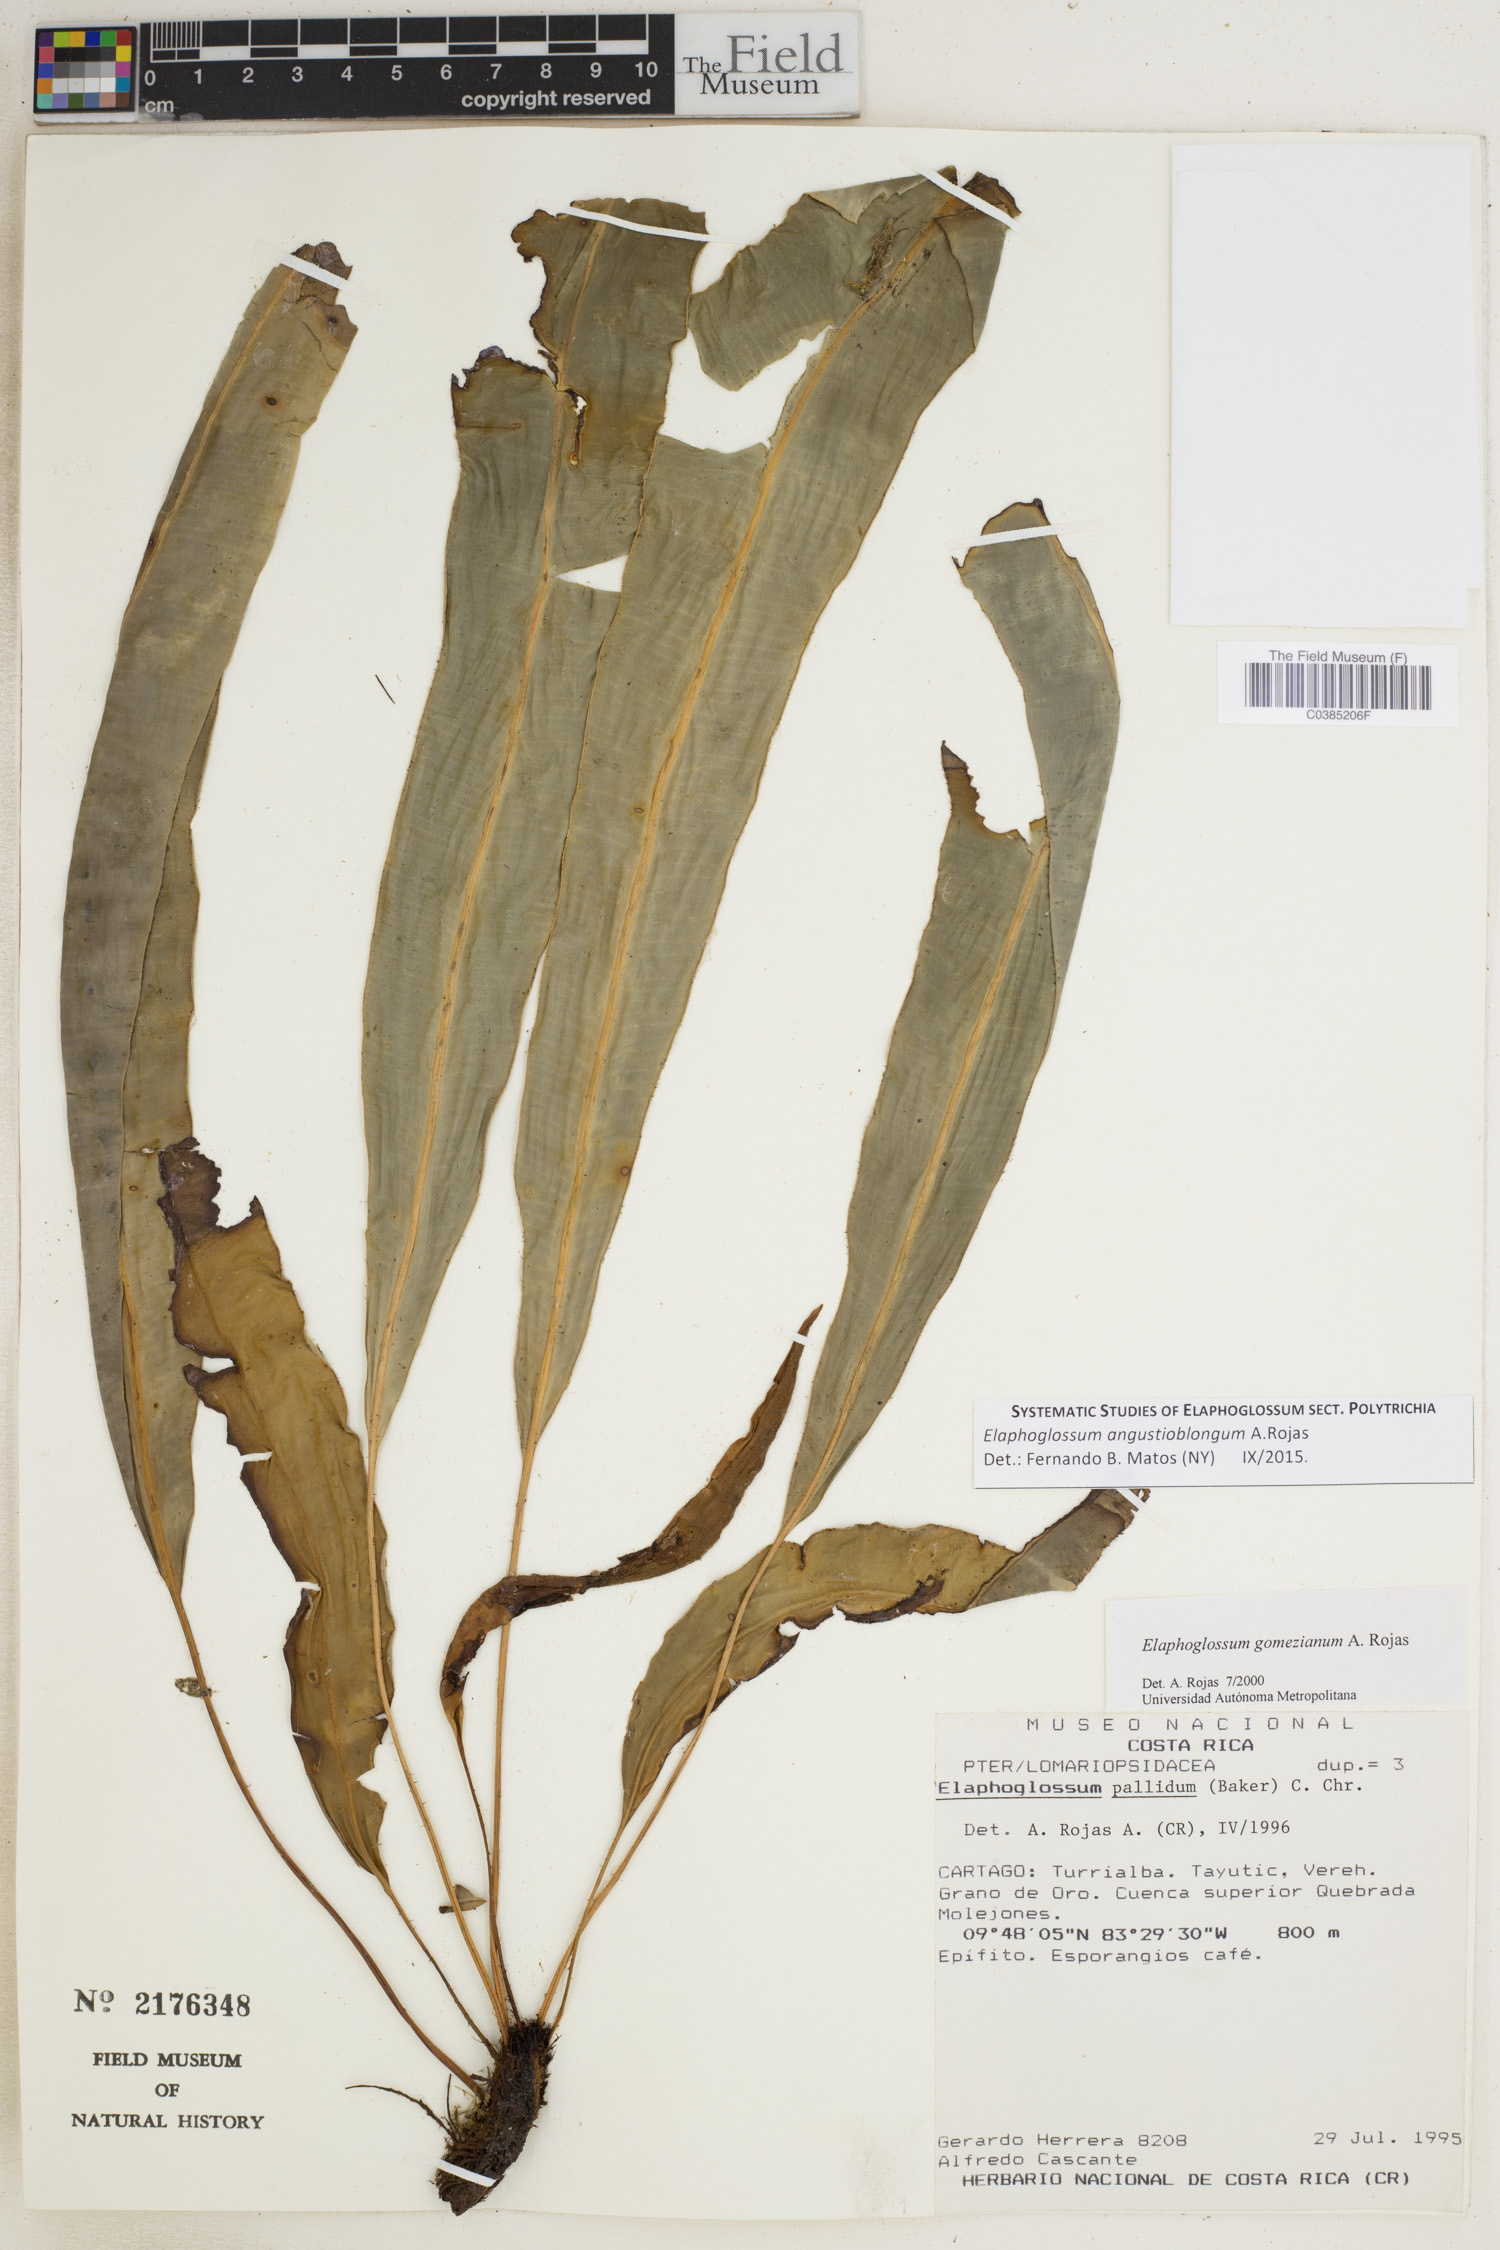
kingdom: Plantae
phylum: Tracheophyta
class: Polypodiopsida
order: Polypodiales
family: Dryopteridaceae
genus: Elaphoglossum
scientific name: Elaphoglossum angustioblongum
